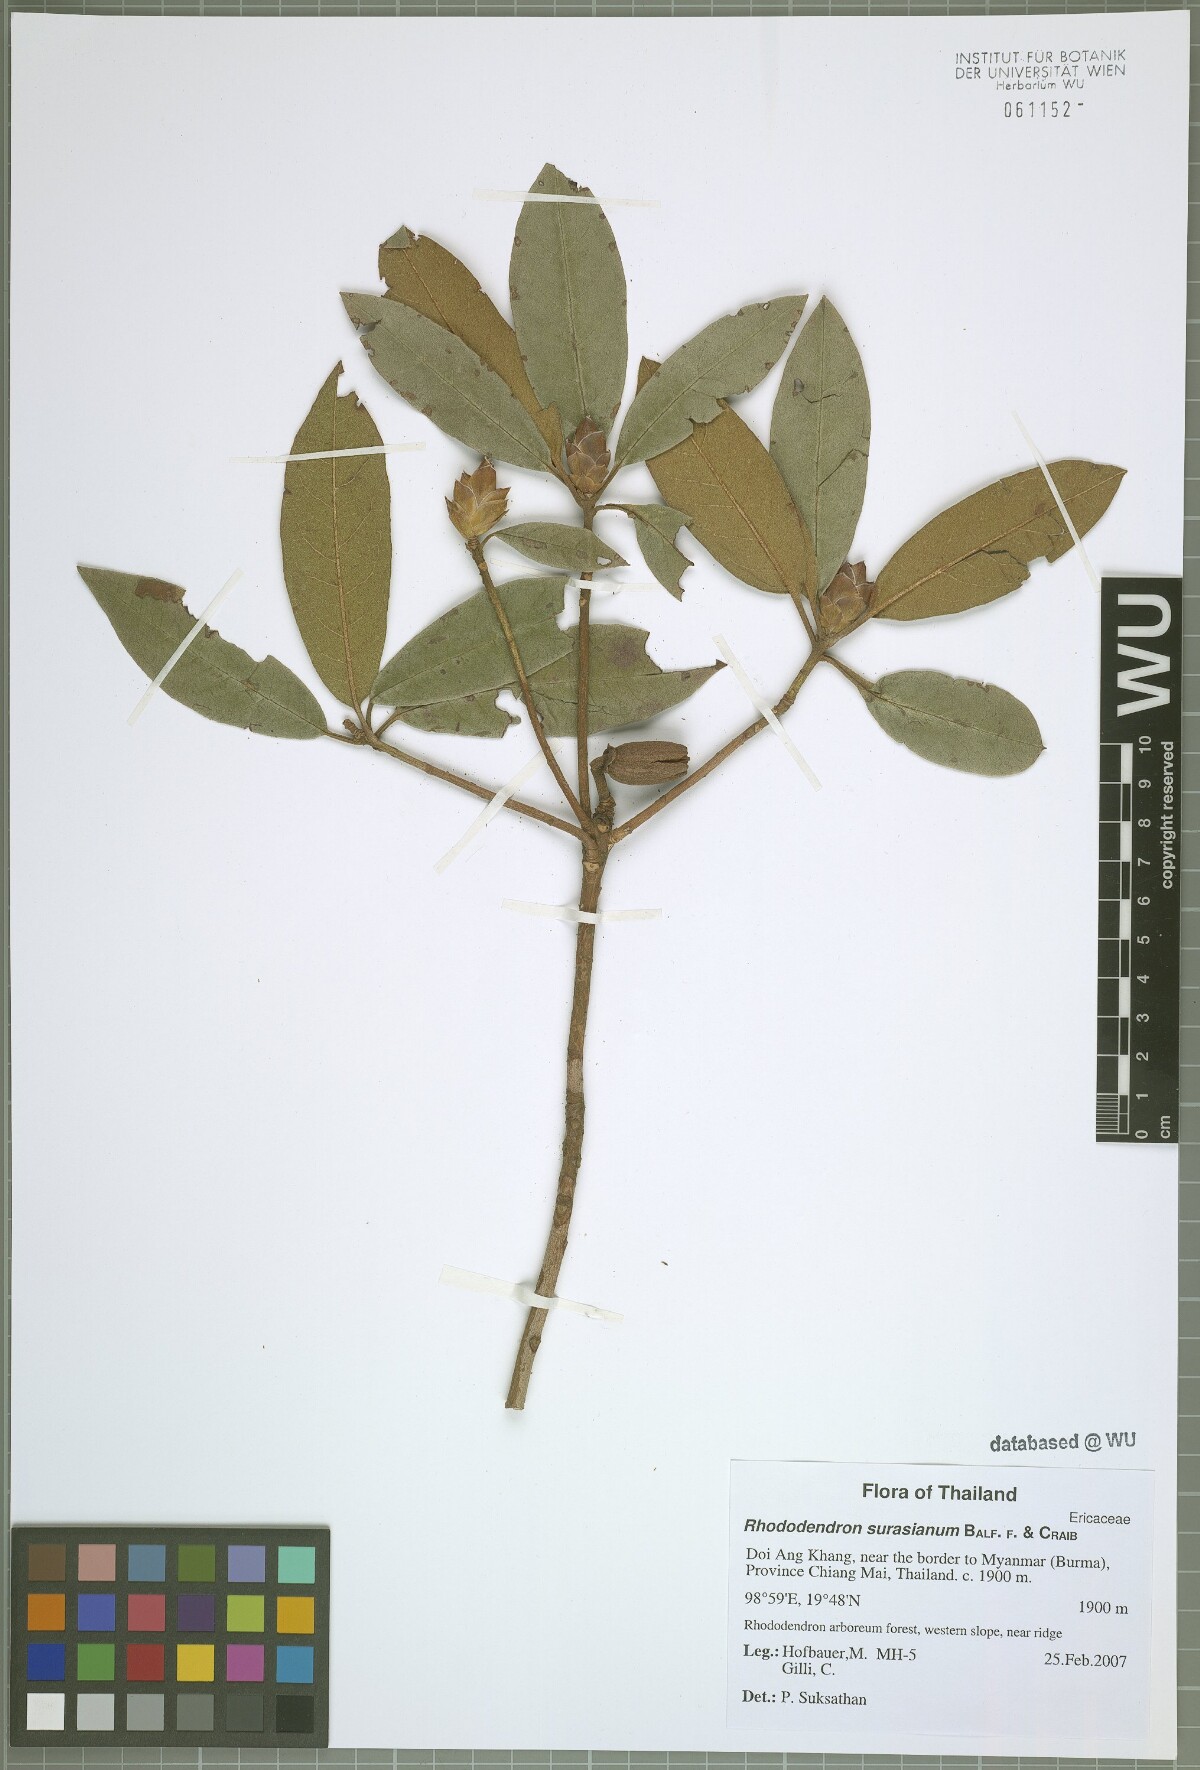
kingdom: Plantae
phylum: Tracheophyta
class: Magnoliopsida
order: Ericales
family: Ericaceae
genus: Rhododendron
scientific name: Rhododendron ciliicalyx
